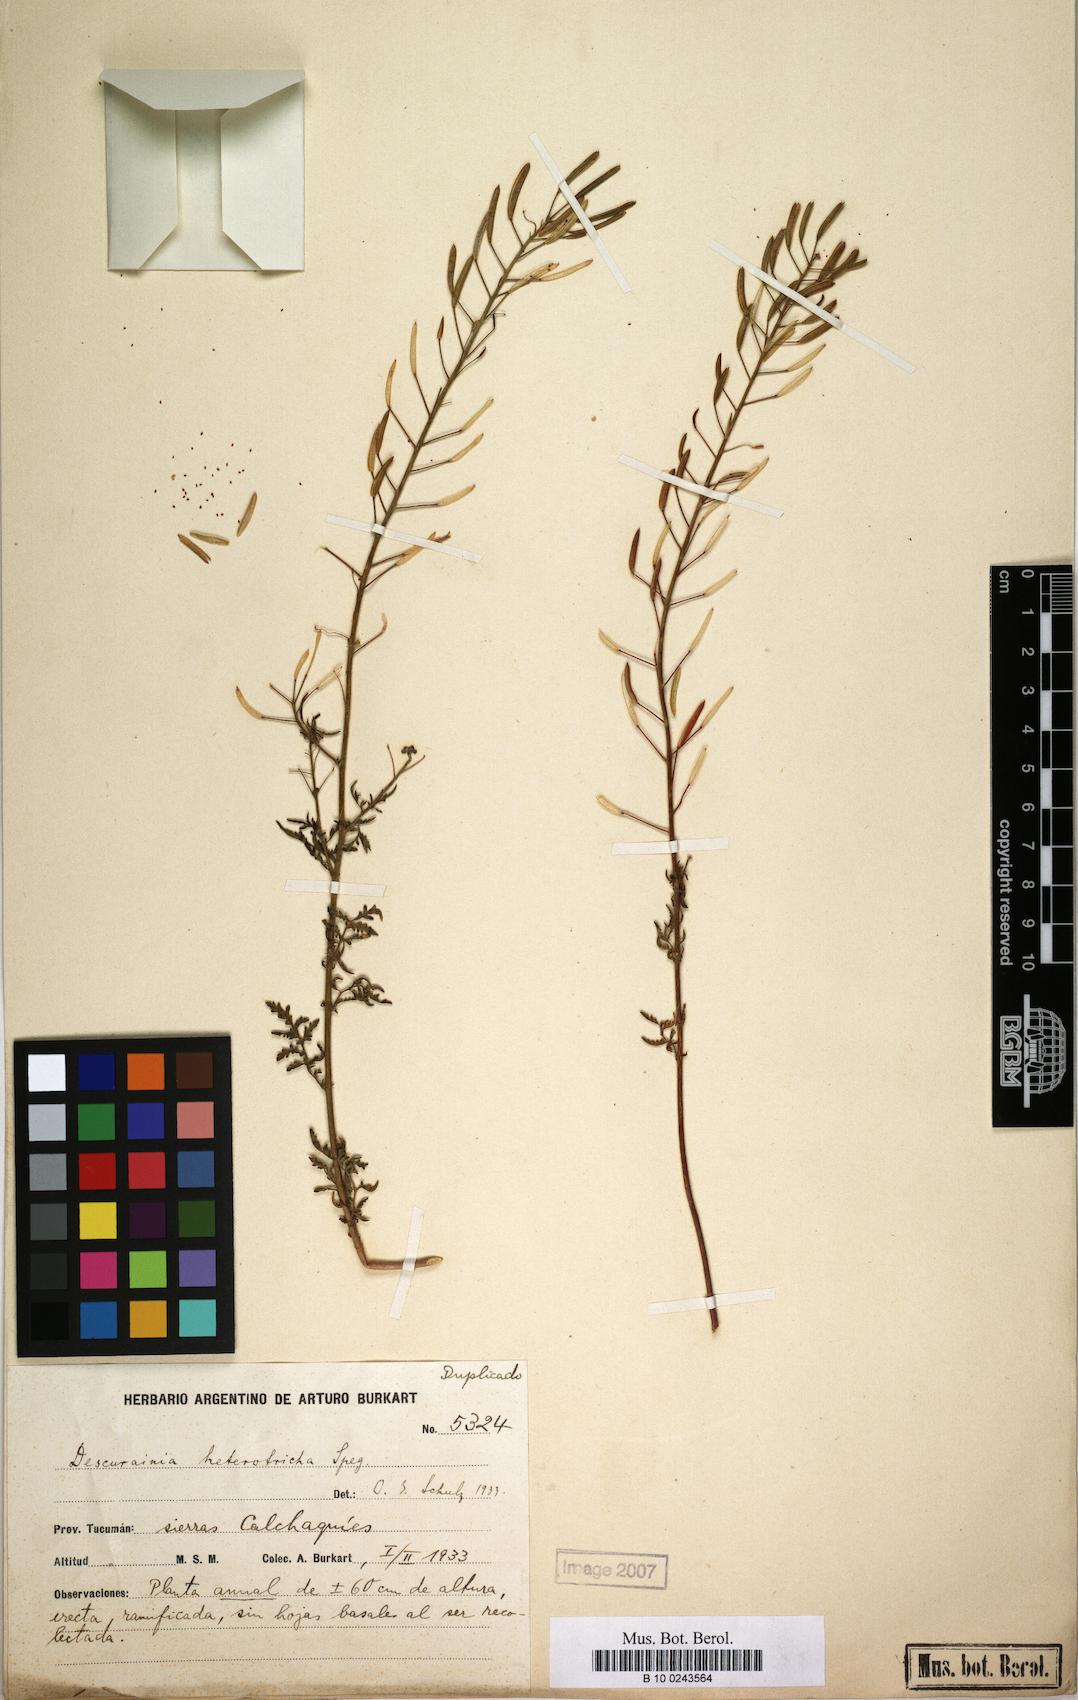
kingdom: Plantae
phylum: Tracheophyta
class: Magnoliopsida
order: Brassicales
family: Brassicaceae
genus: Descurainia
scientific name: Descurainia impatiens
